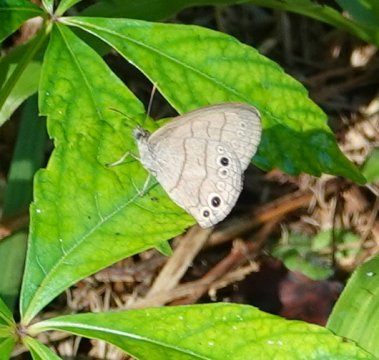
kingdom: Animalia
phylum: Arthropoda
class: Insecta
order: Lepidoptera
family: Nymphalidae
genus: Hermeuptychia
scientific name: Hermeuptychia intricata
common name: Intricate Satyr
